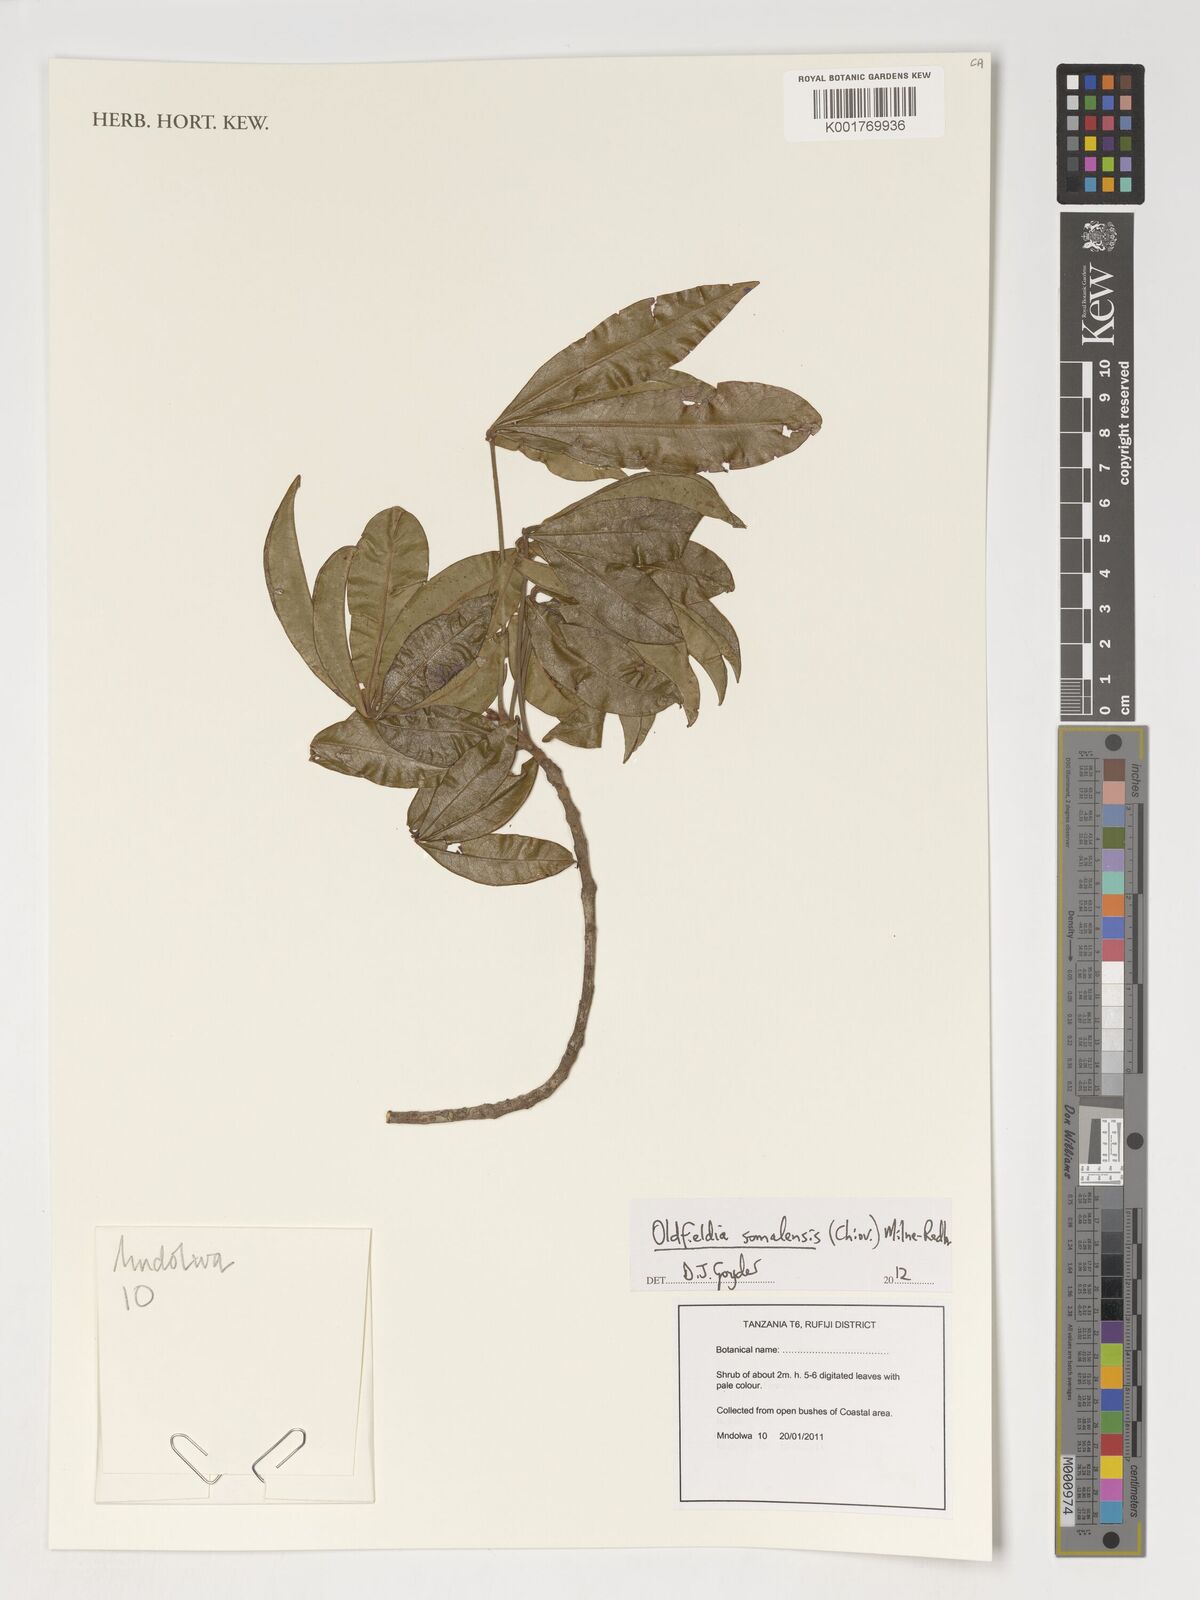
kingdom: Plantae
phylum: Tracheophyta
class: Magnoliopsida
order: Malpighiales
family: Picrodendraceae
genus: Oldfieldia
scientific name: Oldfieldia somalensis
